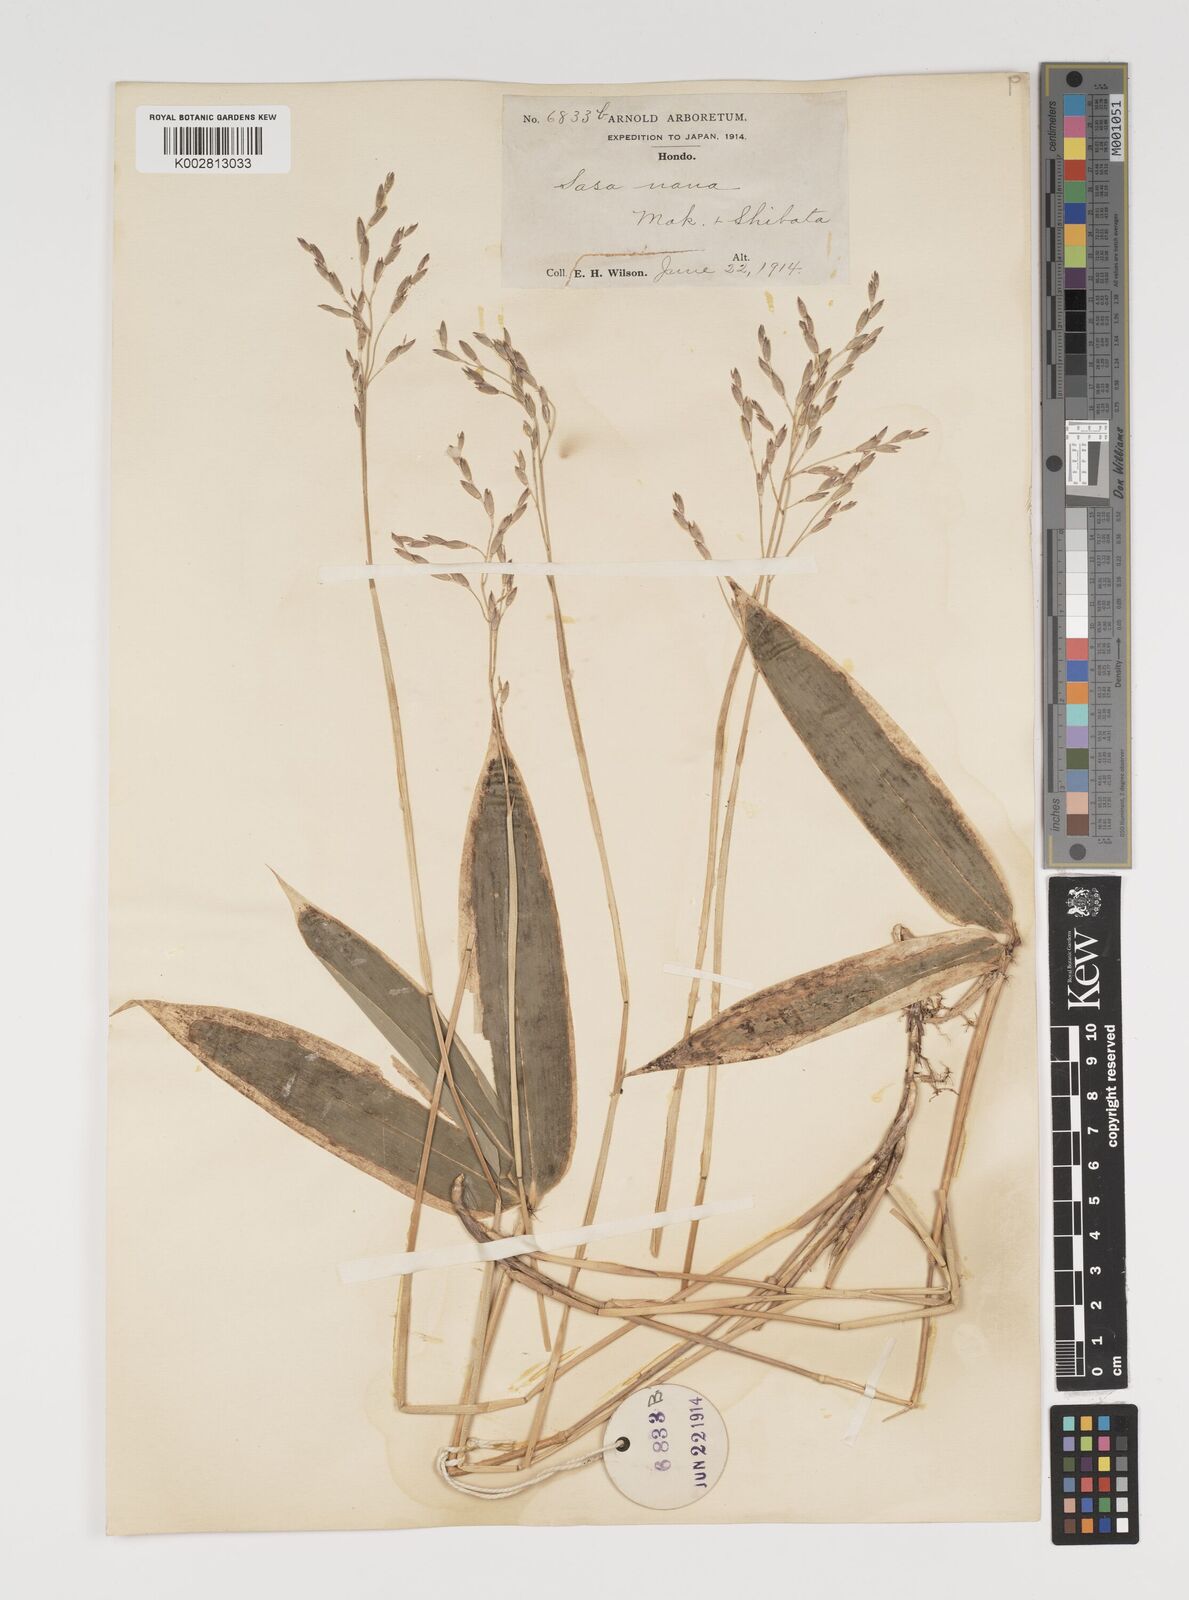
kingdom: Plantae
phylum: Tracheophyta
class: Liliopsida
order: Poales
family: Poaceae
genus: Sasa
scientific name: Sasa chartacea
